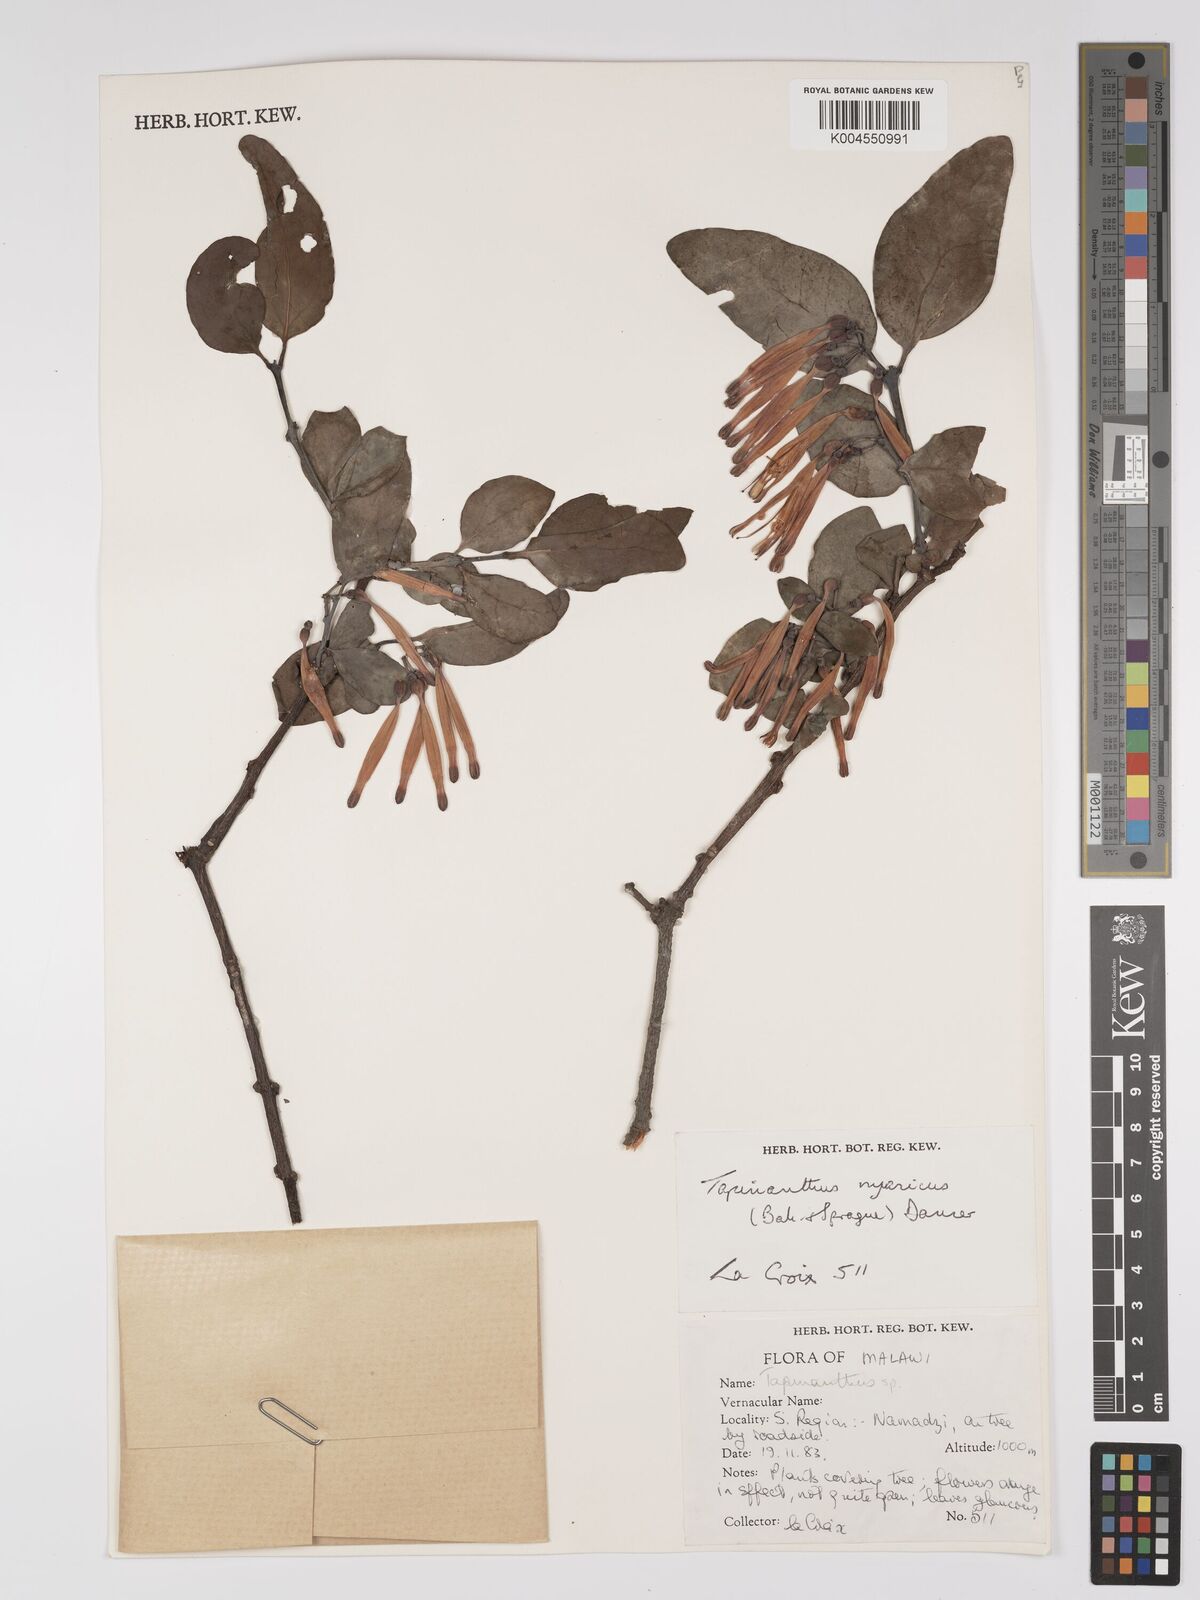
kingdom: Plantae
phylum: Tracheophyta
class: Magnoliopsida
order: Santalales
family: Loranthaceae
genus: Agelanthus
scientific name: Agelanthus nyasicus
